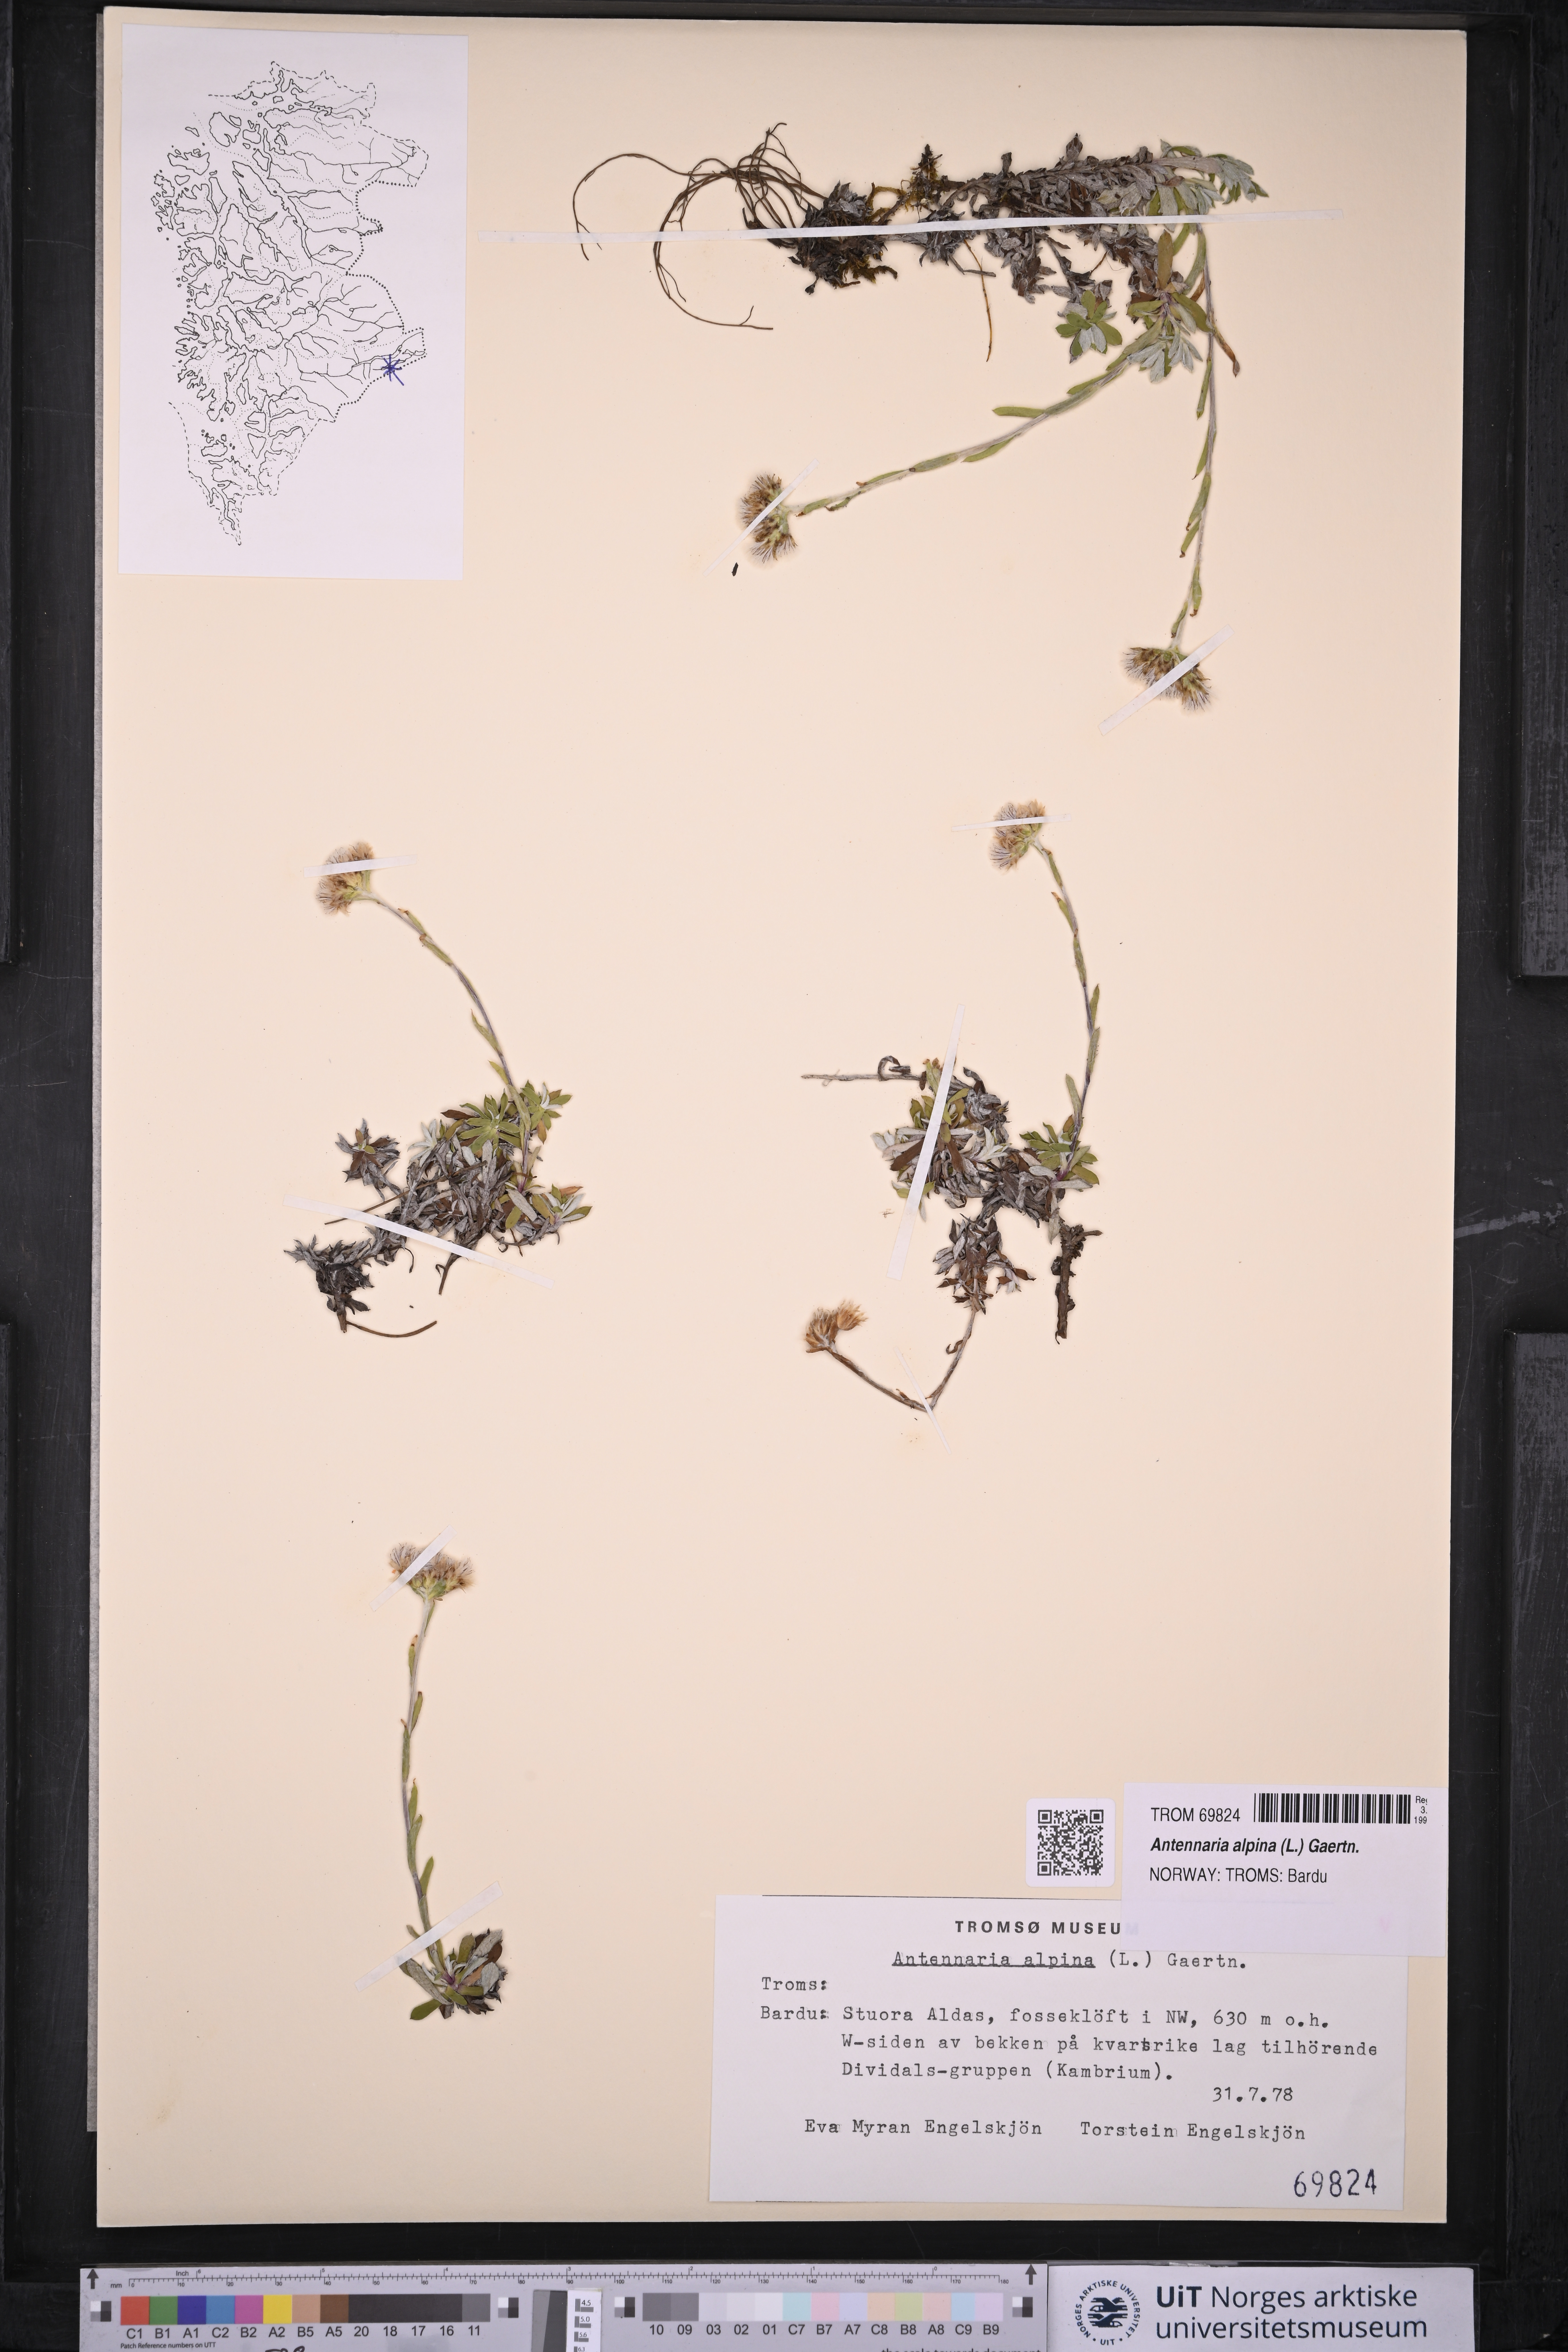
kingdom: Plantae
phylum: Tracheophyta
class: Magnoliopsida
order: Asterales
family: Asteraceae
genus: Antennaria
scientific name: Antennaria alpina
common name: Alpine pussytoes
